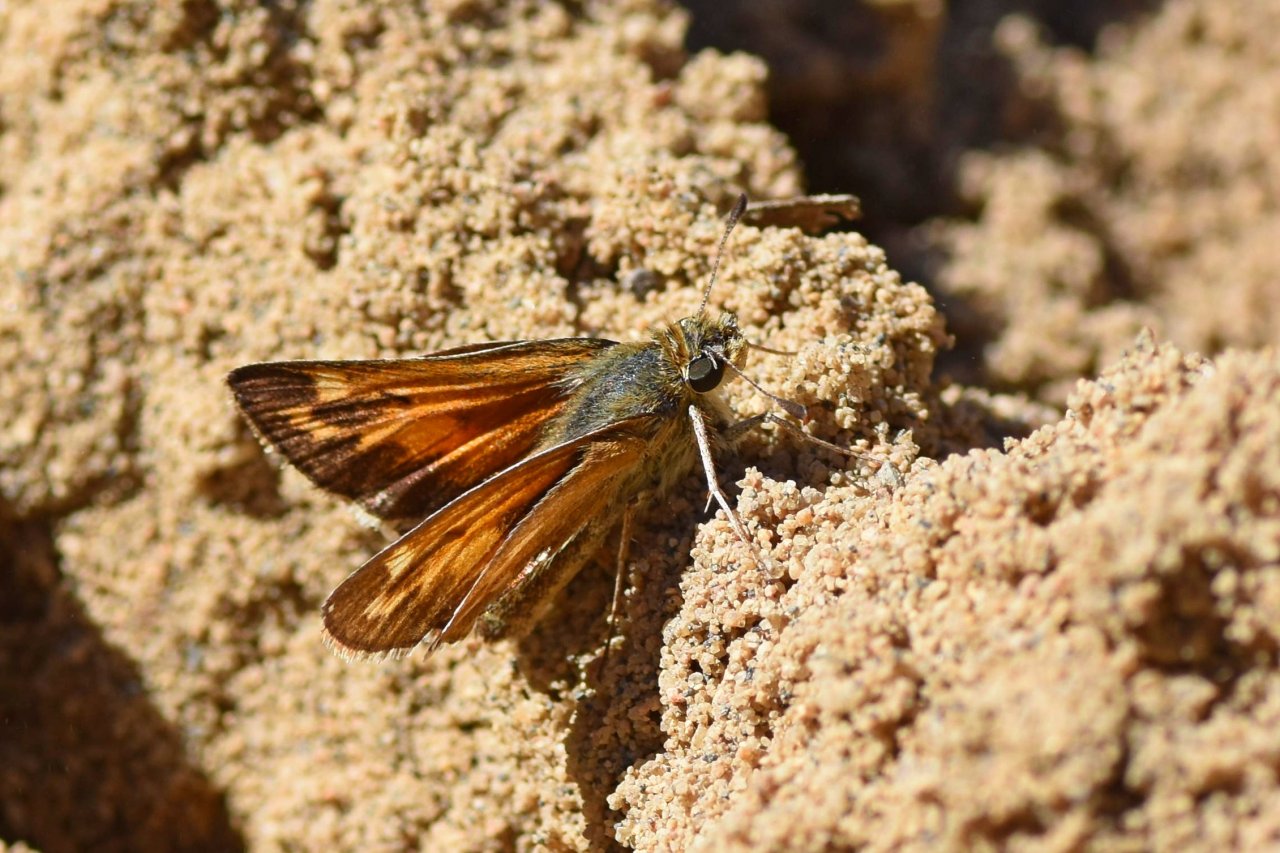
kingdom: Animalia
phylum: Arthropoda
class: Insecta
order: Lepidoptera
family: Hesperiidae
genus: Hesperia
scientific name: Hesperia sassacus
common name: Sassacus Skipper
